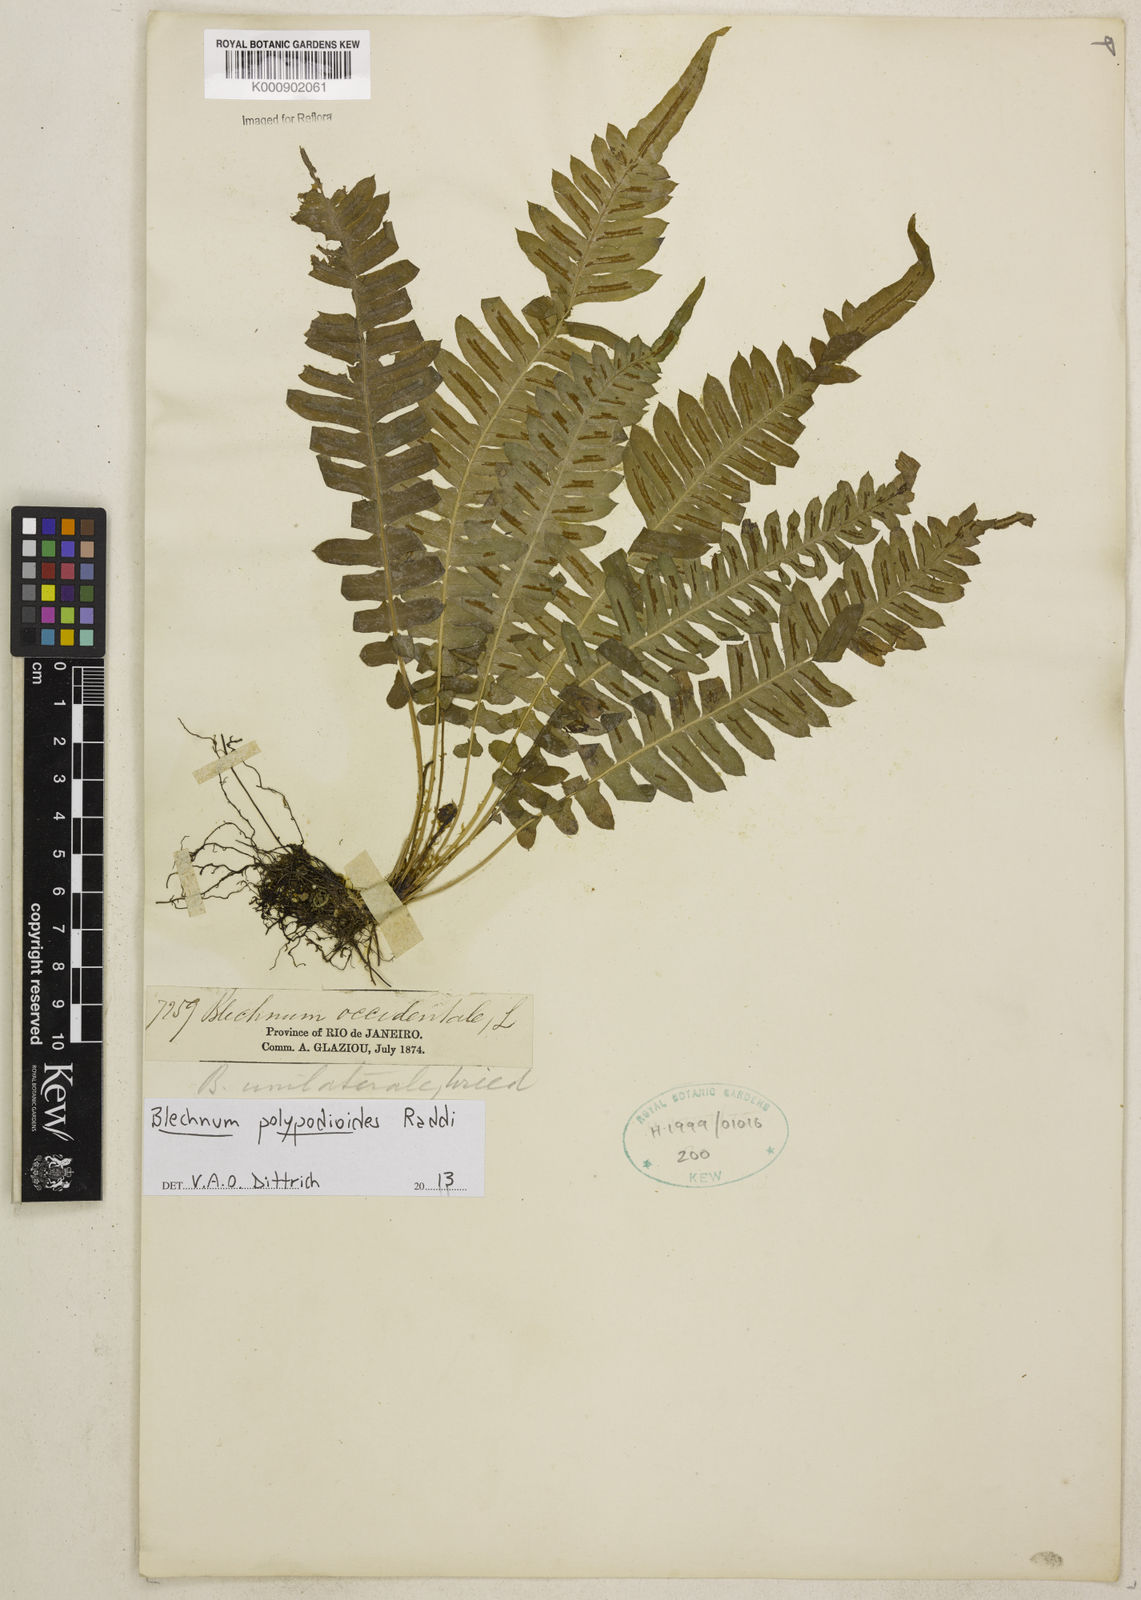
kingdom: Plantae
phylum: Tracheophyta
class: Polypodiopsida
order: Polypodiales
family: Blechnaceae
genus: Blechnum
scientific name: Blechnum polypodioides
